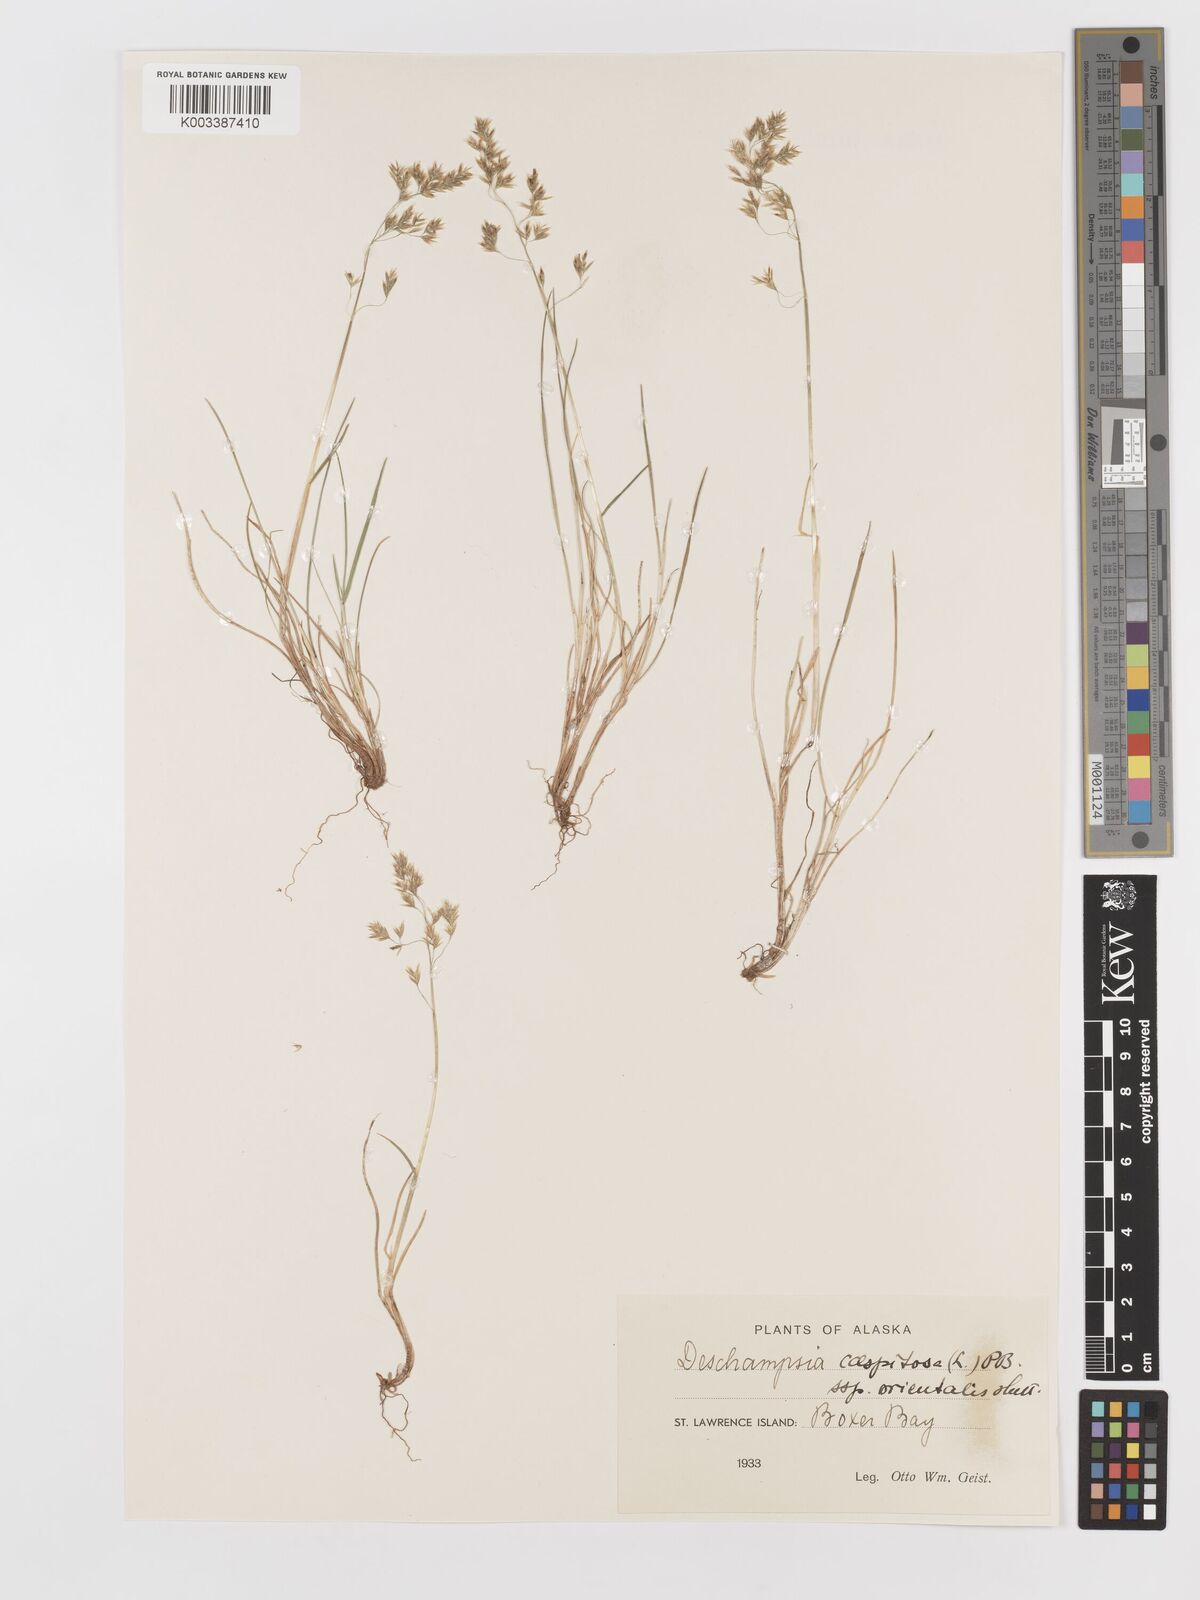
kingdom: Plantae
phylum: Tracheophyta
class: Liliopsida
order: Poales
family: Poaceae
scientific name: Poaceae
